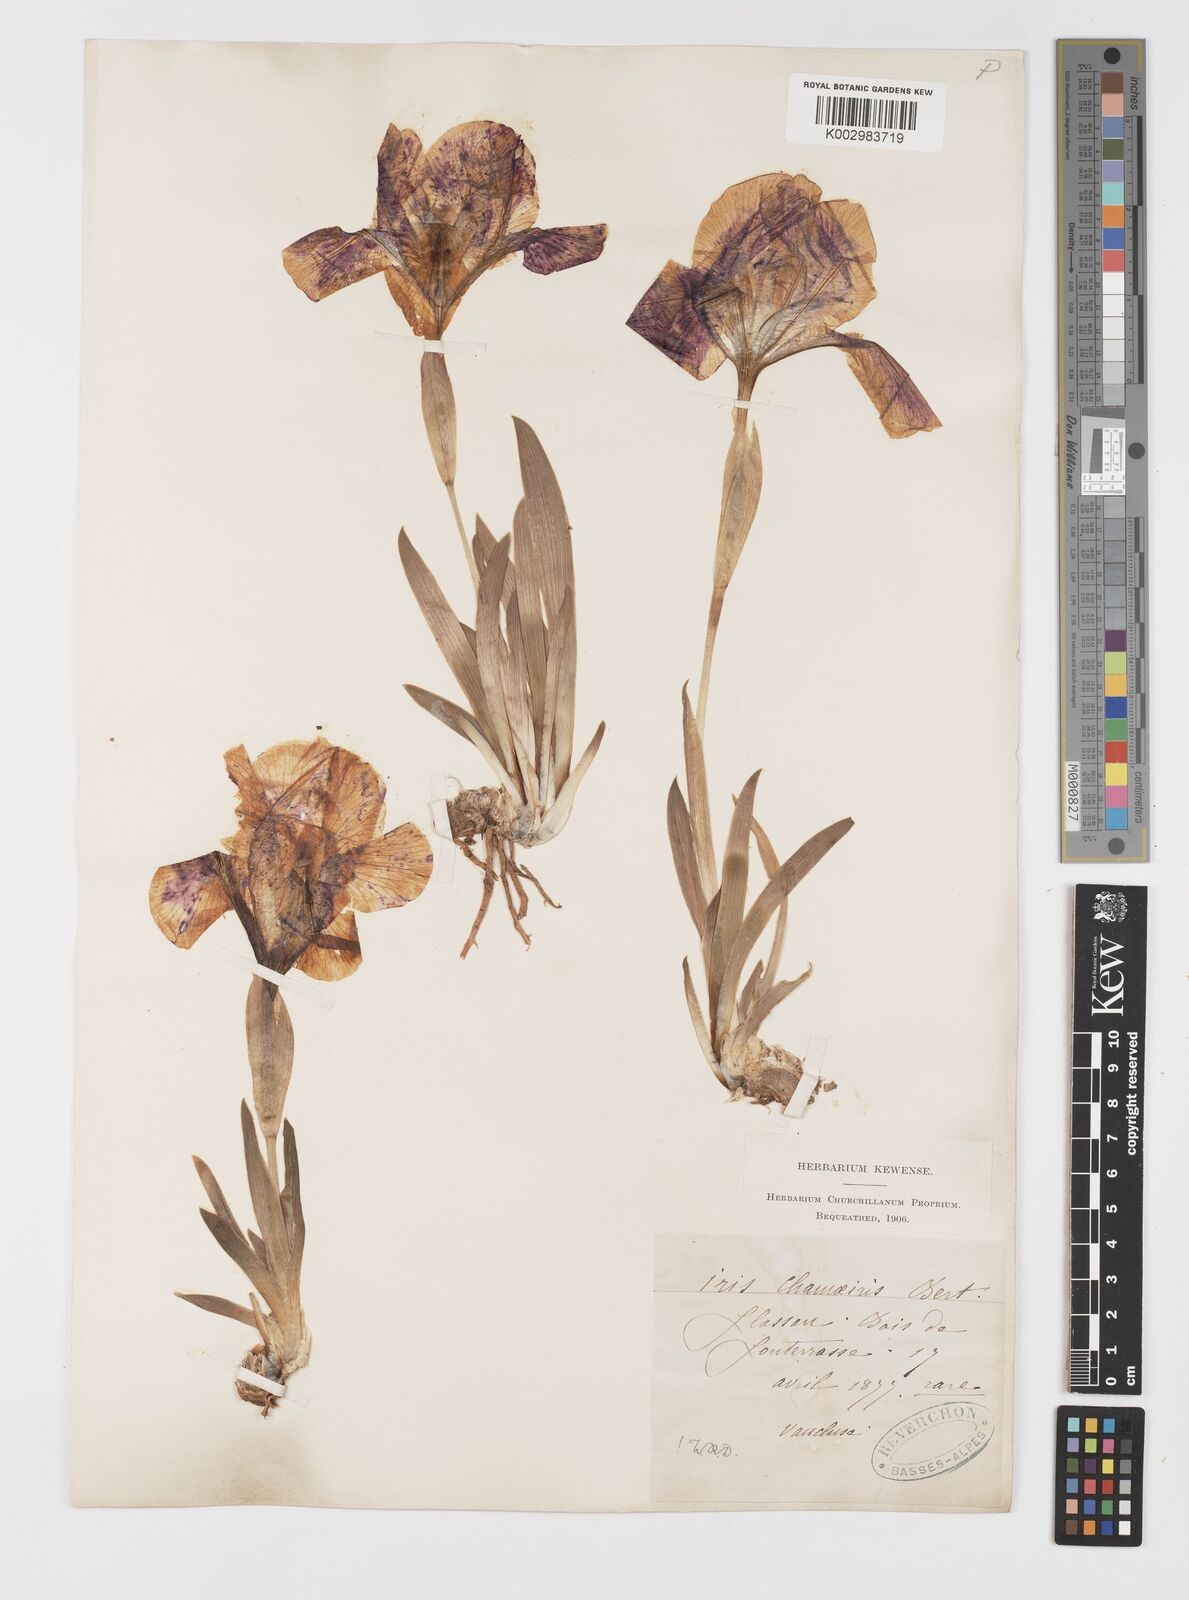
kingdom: Plantae
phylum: Tracheophyta
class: Liliopsida
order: Asparagales
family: Iridaceae
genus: Iris
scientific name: Iris lutescens
